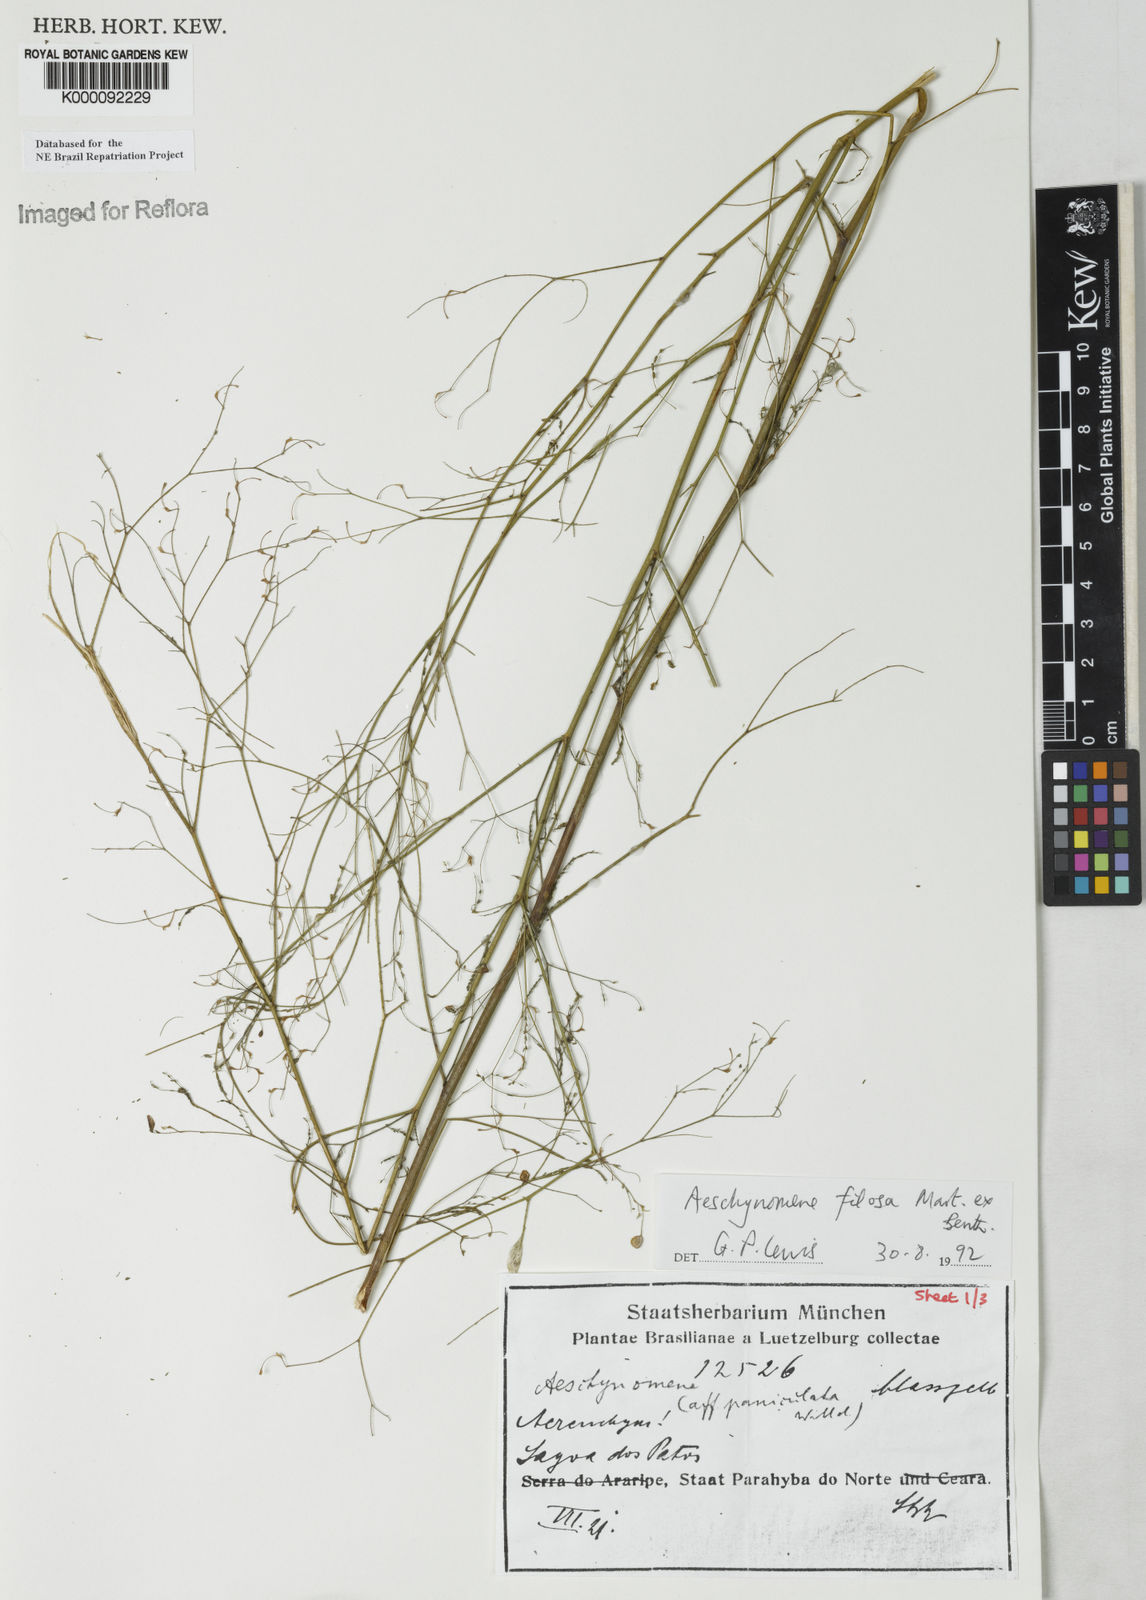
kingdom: Plantae
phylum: Tracheophyta
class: Magnoliopsida
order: Fabales
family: Fabaceae
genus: Aeschynomene
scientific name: Aeschynomene filosa
